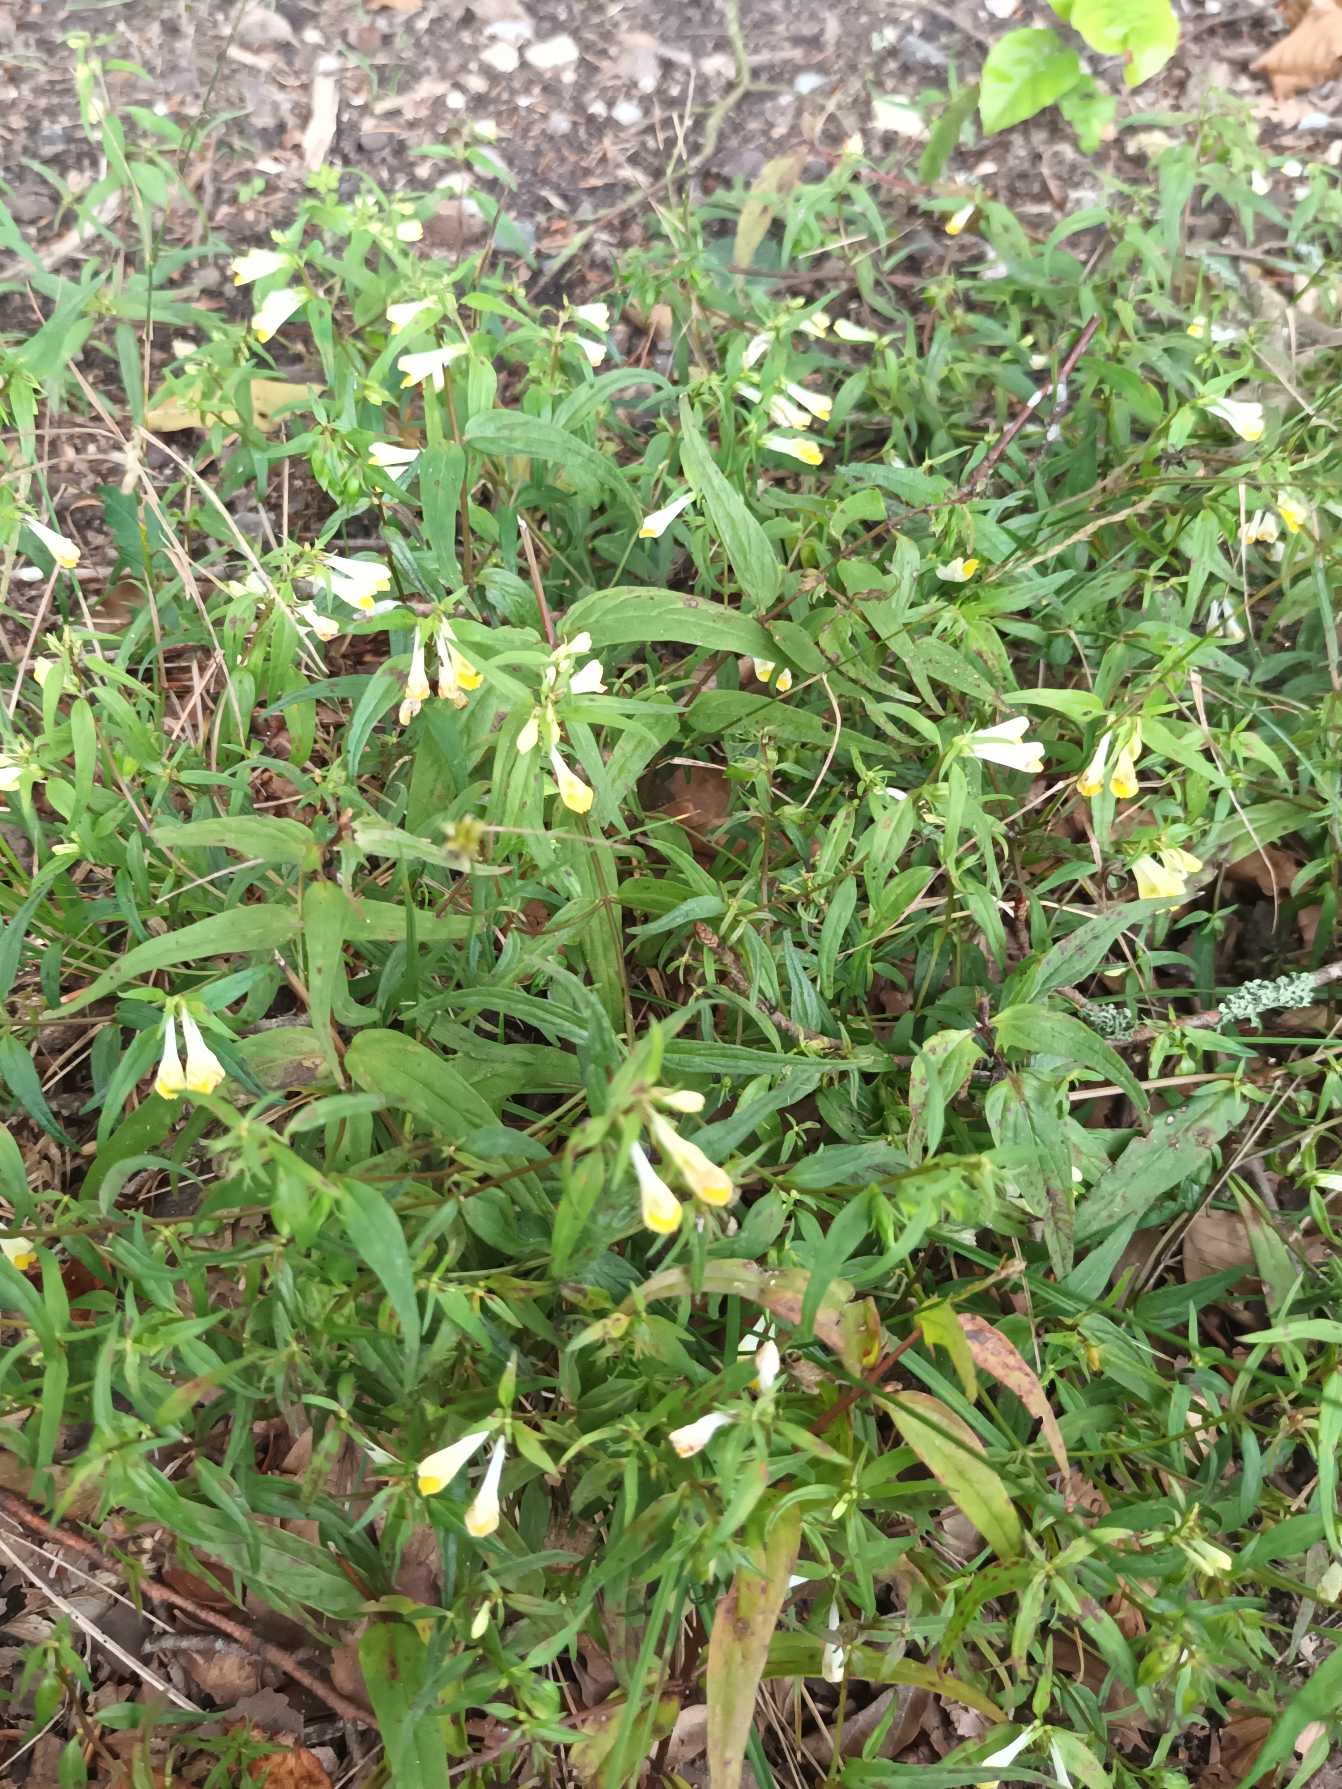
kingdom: Plantae
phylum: Tracheophyta
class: Magnoliopsida
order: Lamiales
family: Orobanchaceae
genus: Melampyrum
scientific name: Melampyrum pratense
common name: Almindelig kohvede
